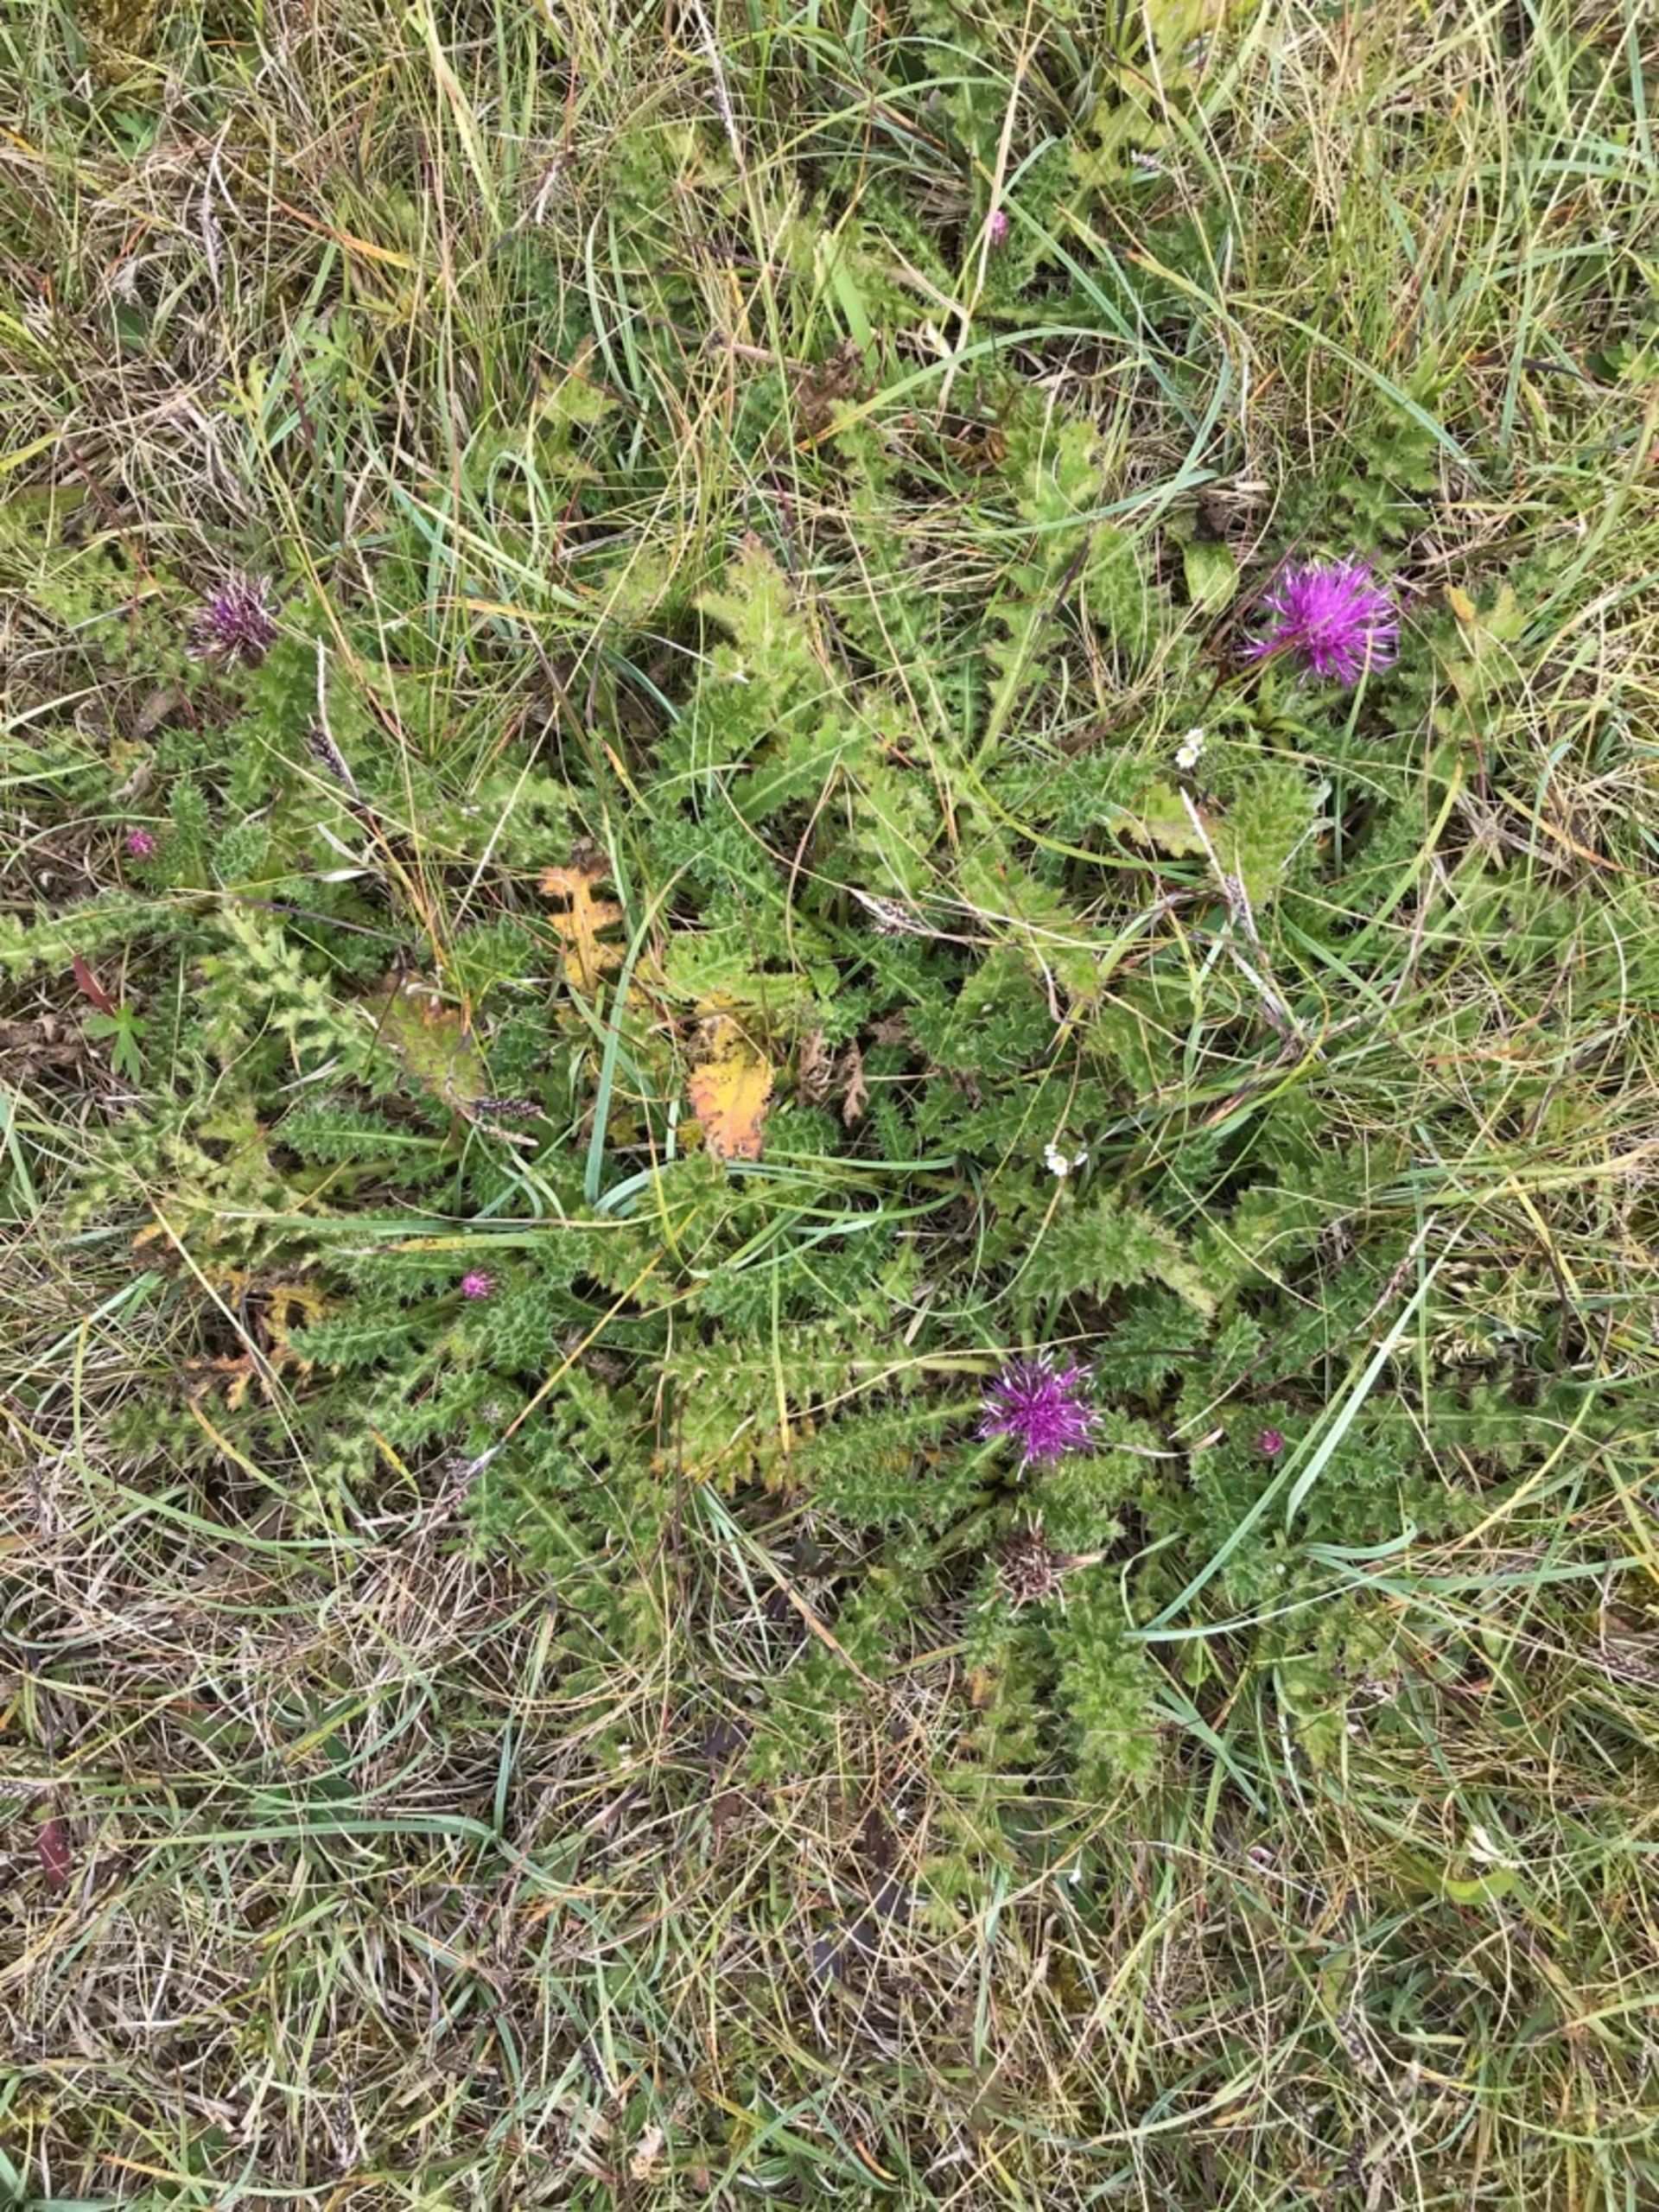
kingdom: Plantae
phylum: Tracheophyta
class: Magnoliopsida
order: Asterales
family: Asteraceae
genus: Cirsium
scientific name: Cirsium acaule
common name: Lav tidsel
